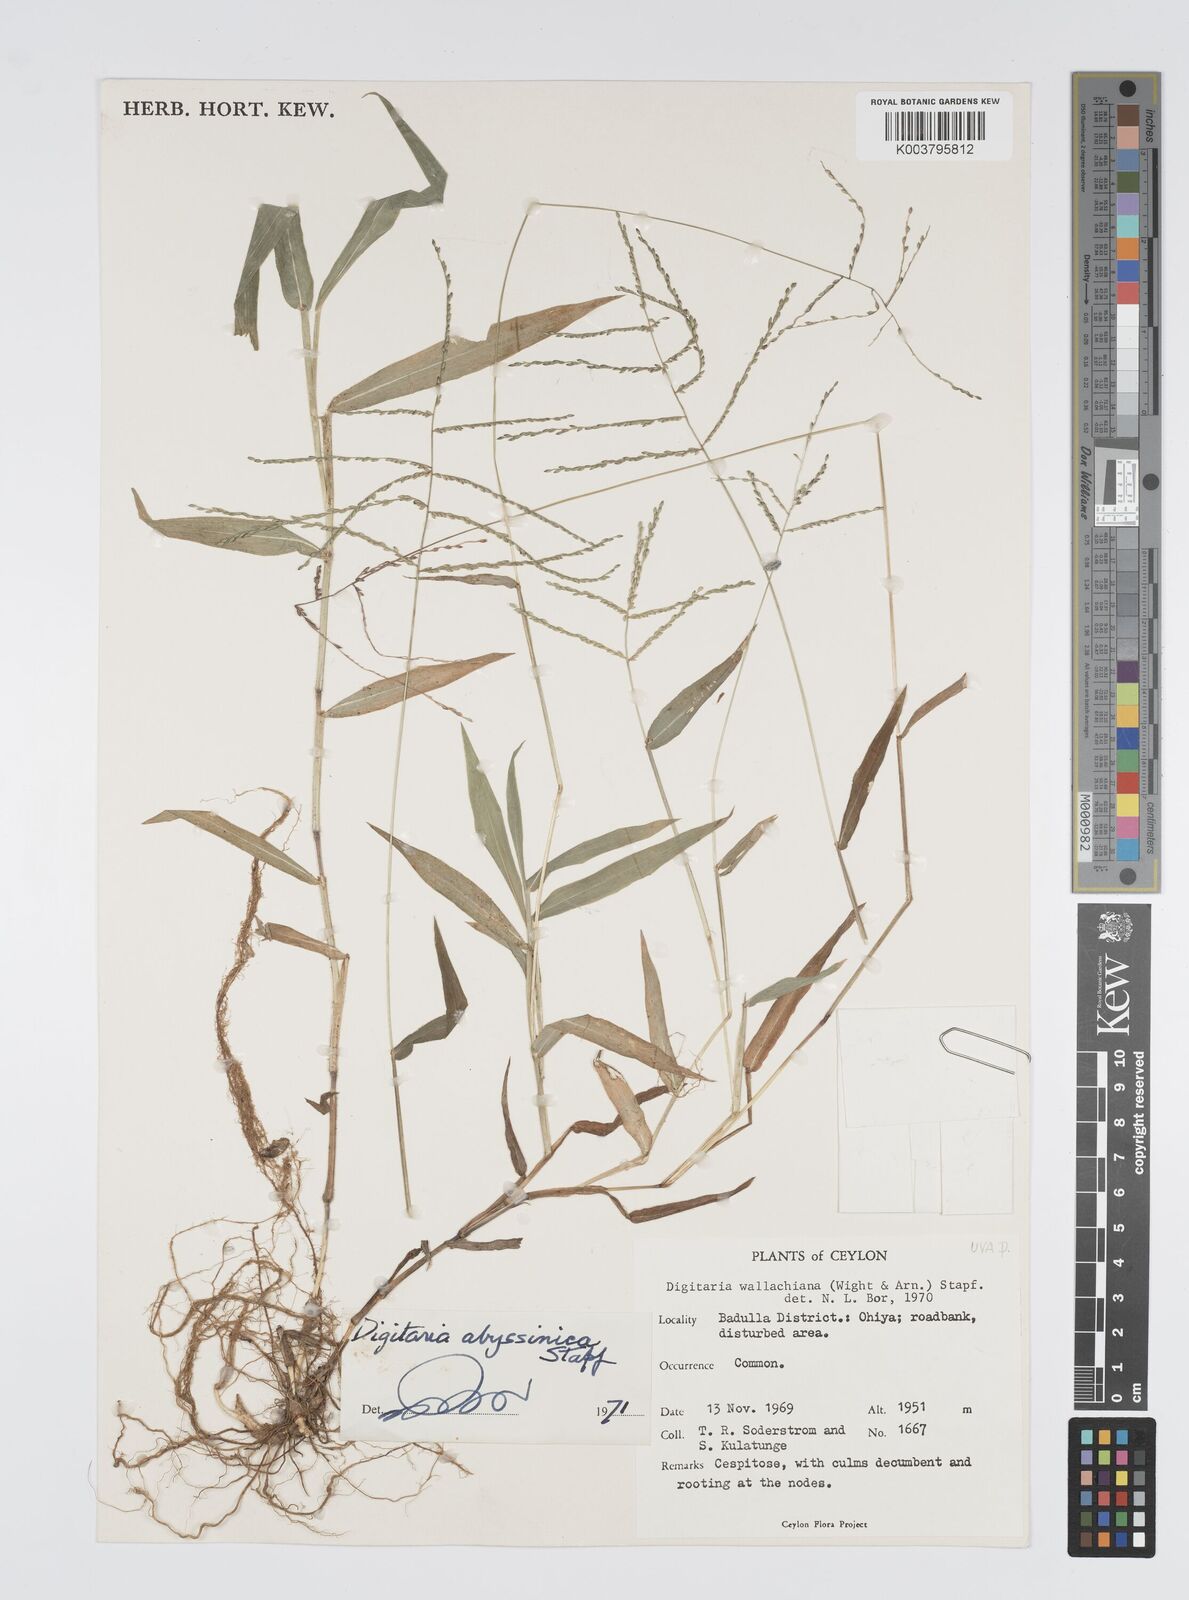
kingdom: Plantae
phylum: Tracheophyta
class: Liliopsida
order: Poales
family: Poaceae
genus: Digitaria
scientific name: Digitaria abyssinica
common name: African couchgrass
